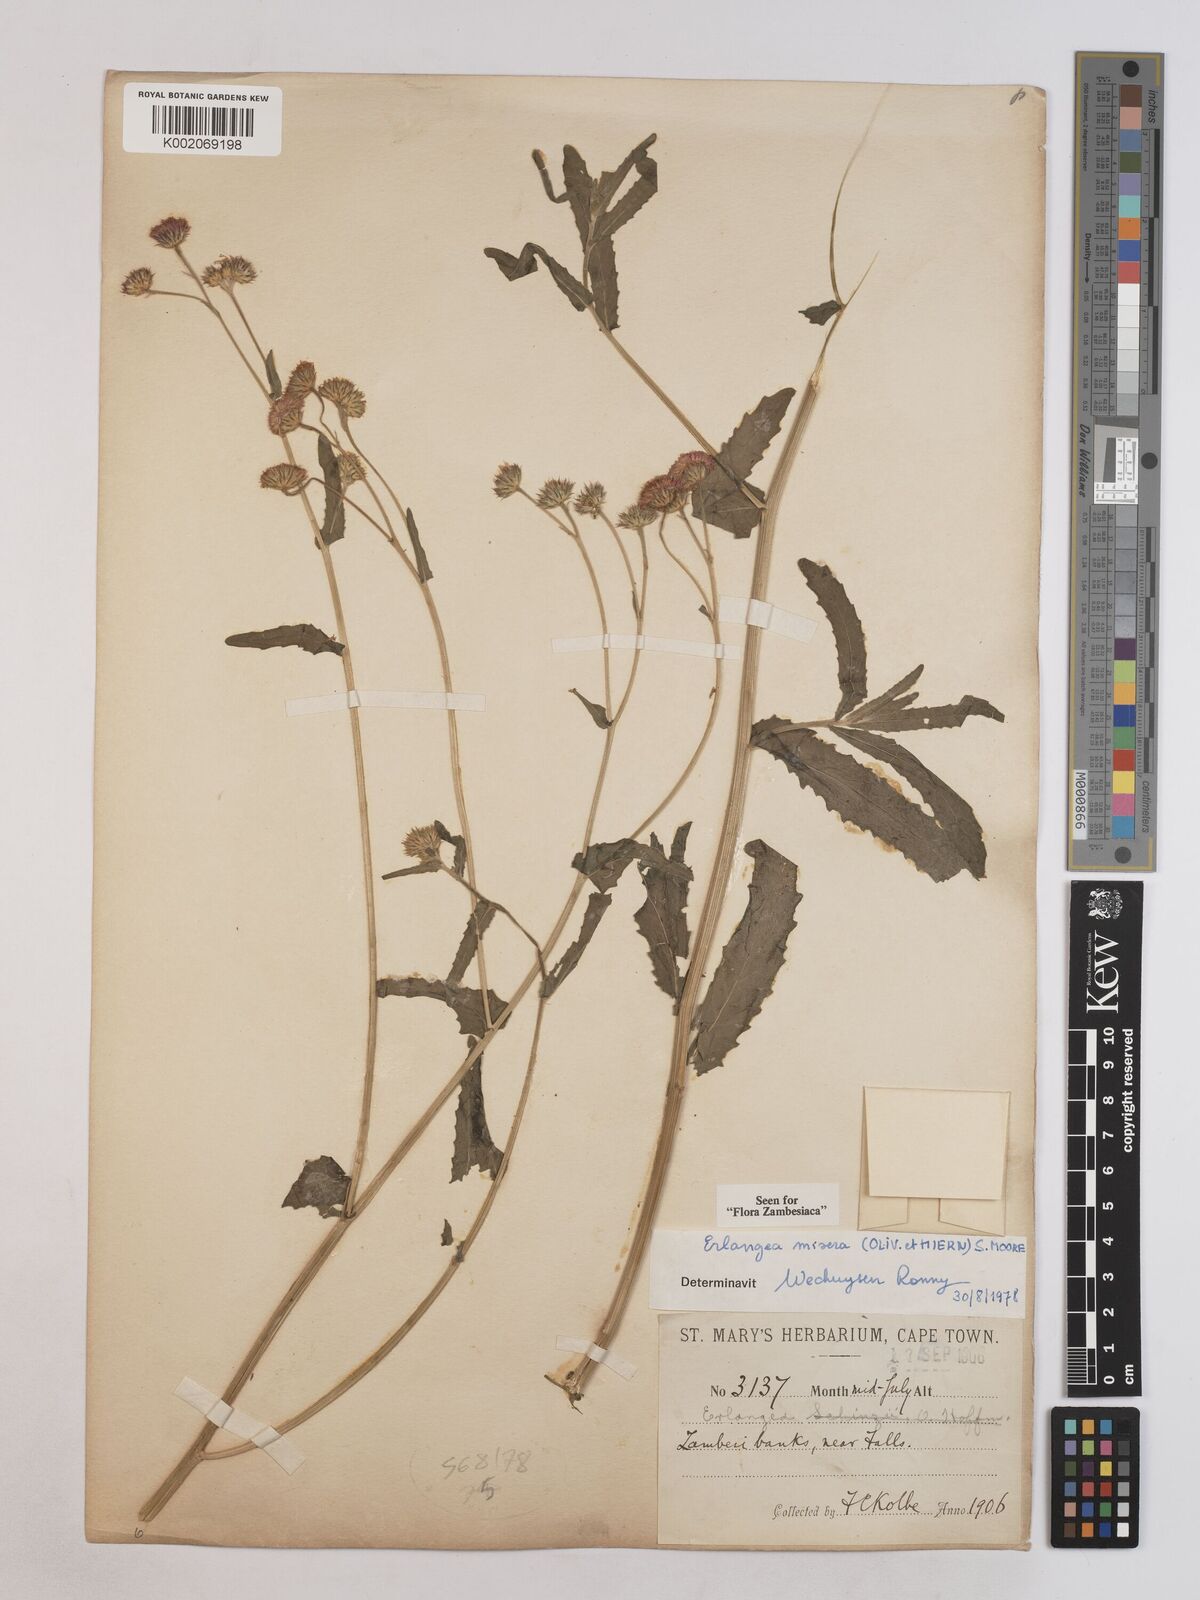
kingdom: Plantae
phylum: Tracheophyta
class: Magnoliopsida
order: Asterales
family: Asteraceae
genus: Erlangea
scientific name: Erlangea misera
